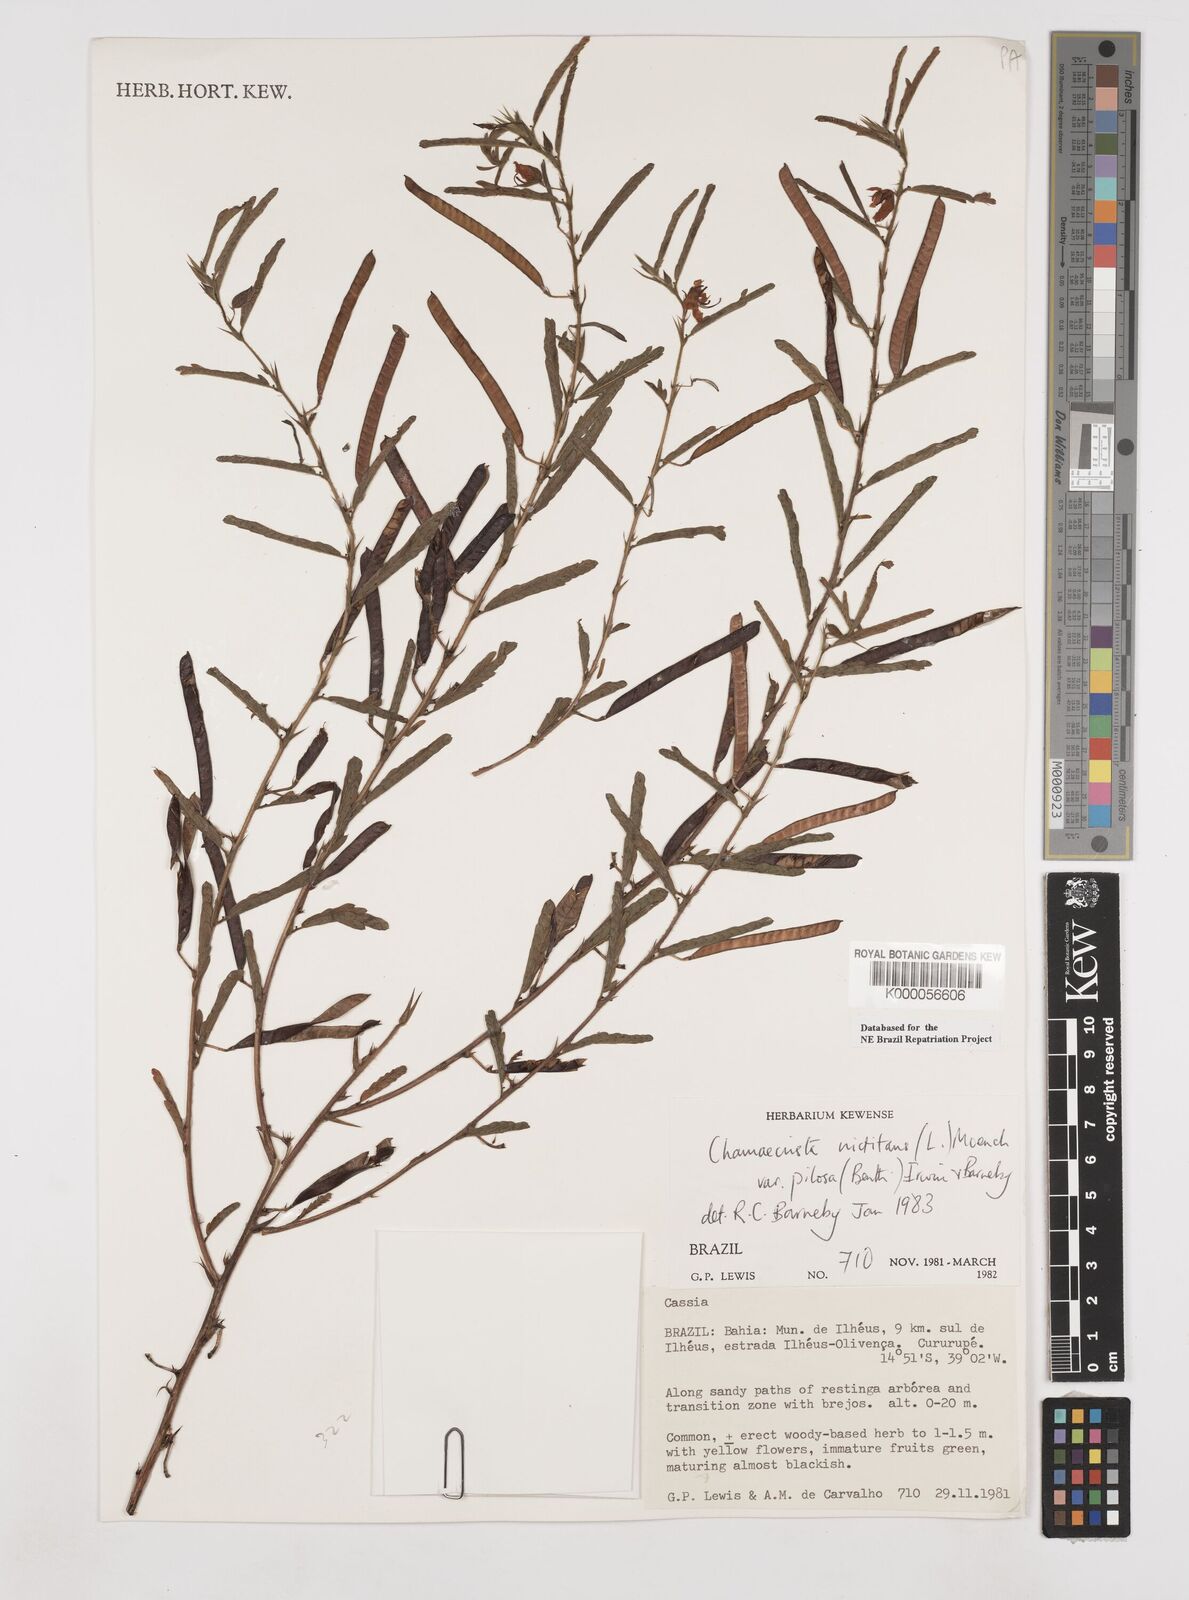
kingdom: Plantae
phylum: Tracheophyta
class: Magnoliopsida
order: Fabales
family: Fabaceae
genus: Chamaecrista
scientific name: Chamaecrista nictitans
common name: Sensitive cassia
